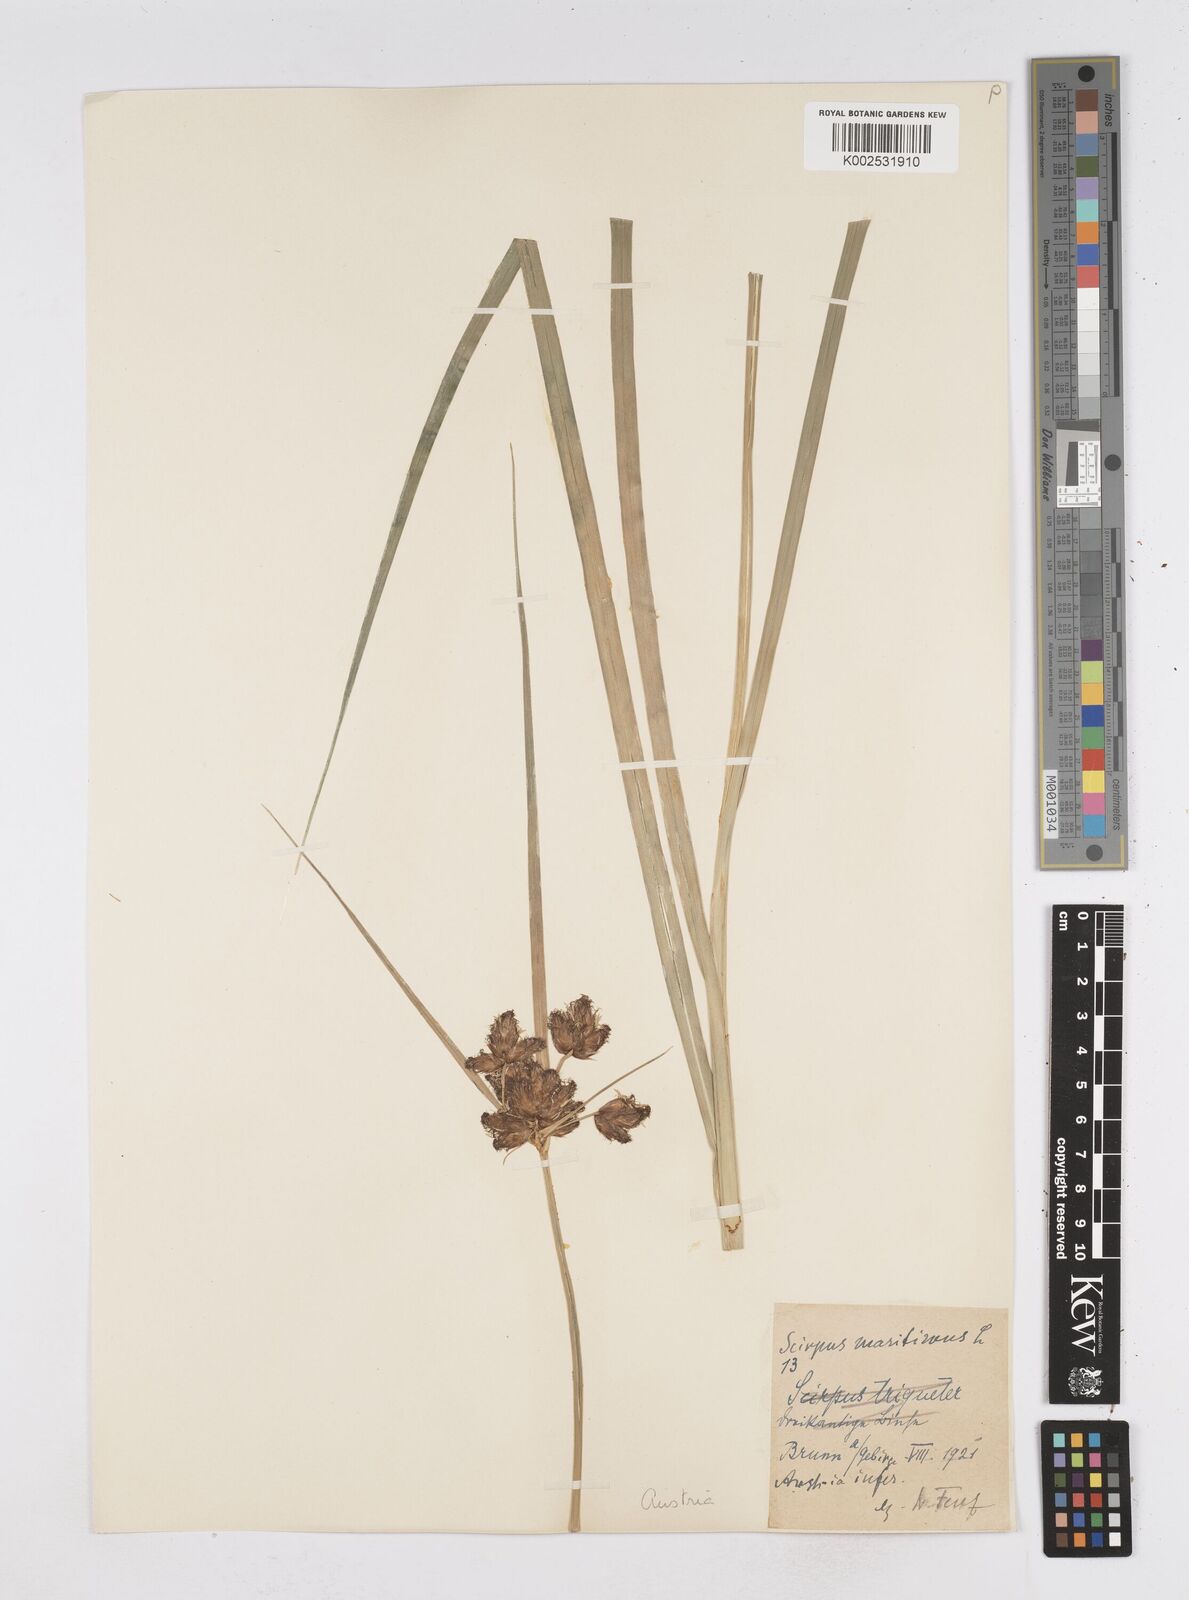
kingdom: Plantae
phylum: Tracheophyta
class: Liliopsida
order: Poales
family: Cyperaceae
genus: Bolboschoenus
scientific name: Bolboschoenus maritimus
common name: Sea club-rush
